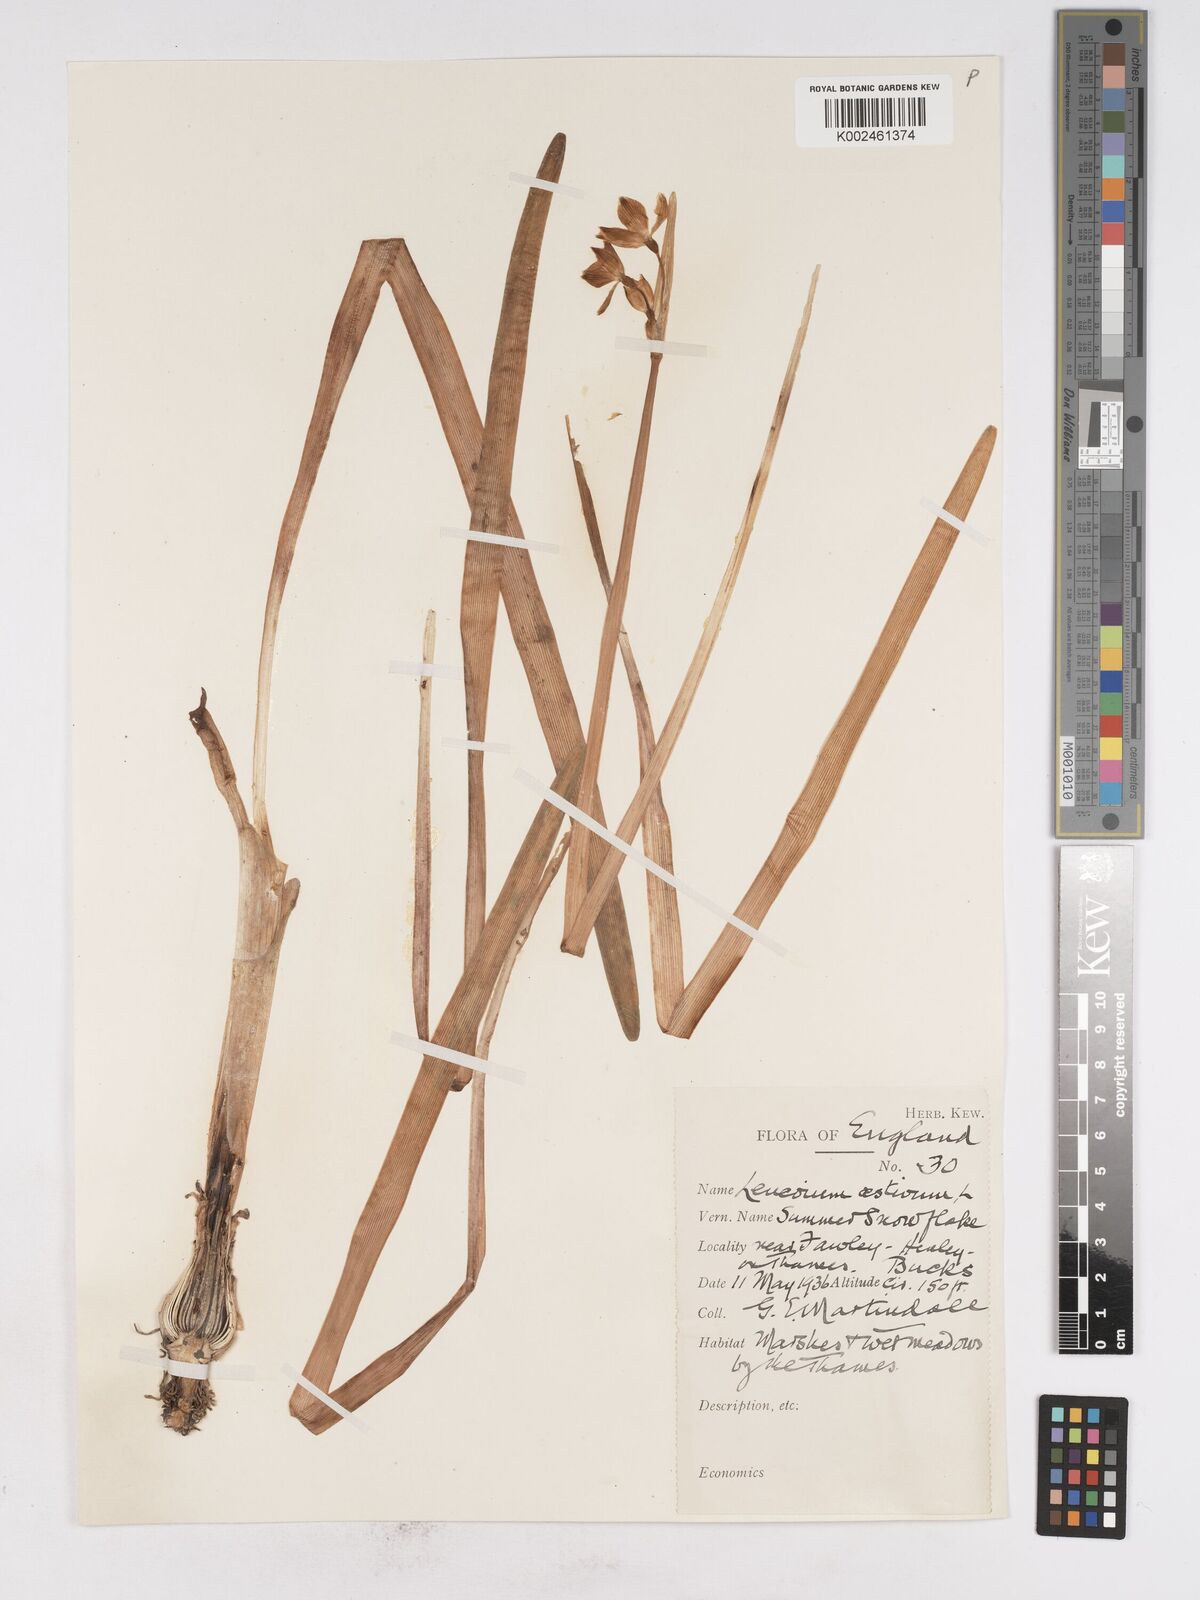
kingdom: Plantae
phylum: Tracheophyta
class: Liliopsida
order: Asparagales
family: Amaryllidaceae
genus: Leucojum
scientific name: Leucojum aestivum
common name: Summer snowflake
